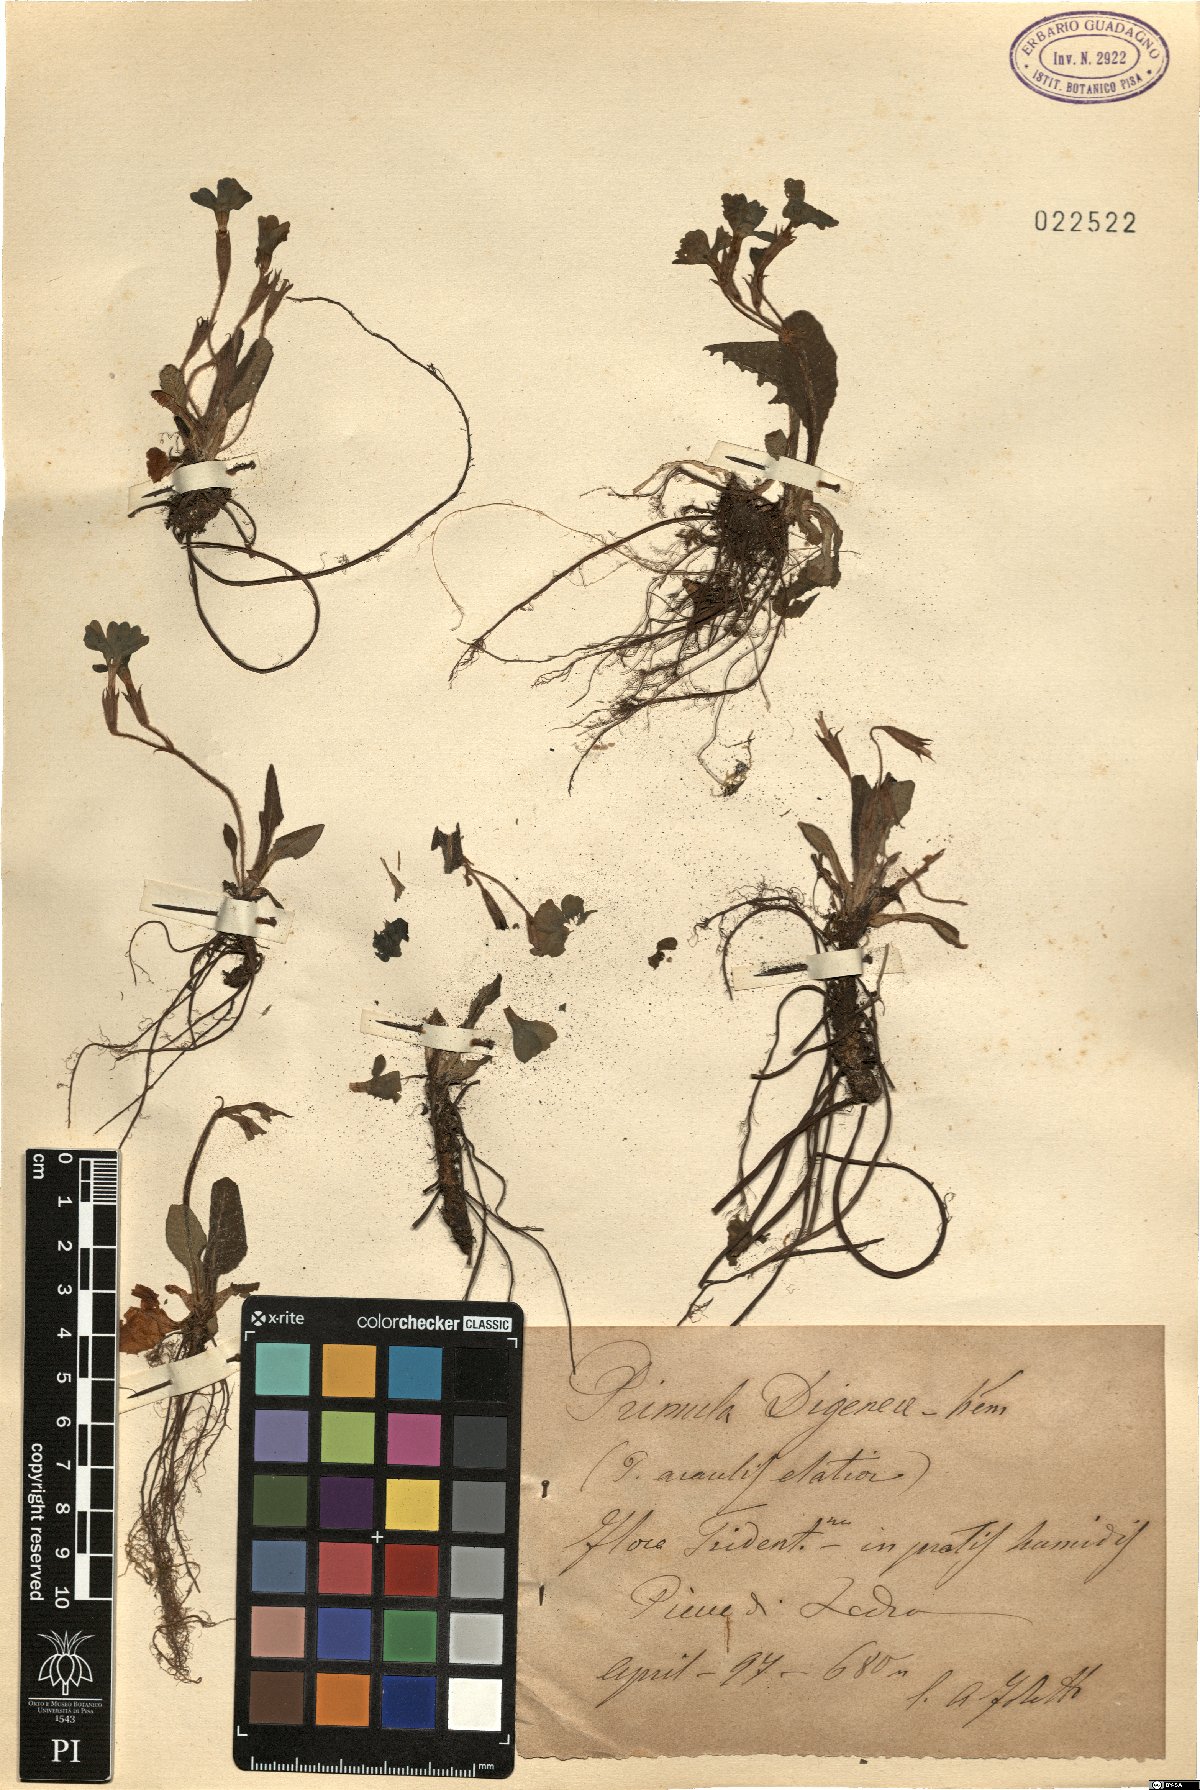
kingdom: Plantae
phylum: Tracheophyta
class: Magnoliopsida
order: Ericales
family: Primulaceae
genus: Primula
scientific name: Primula digenea
